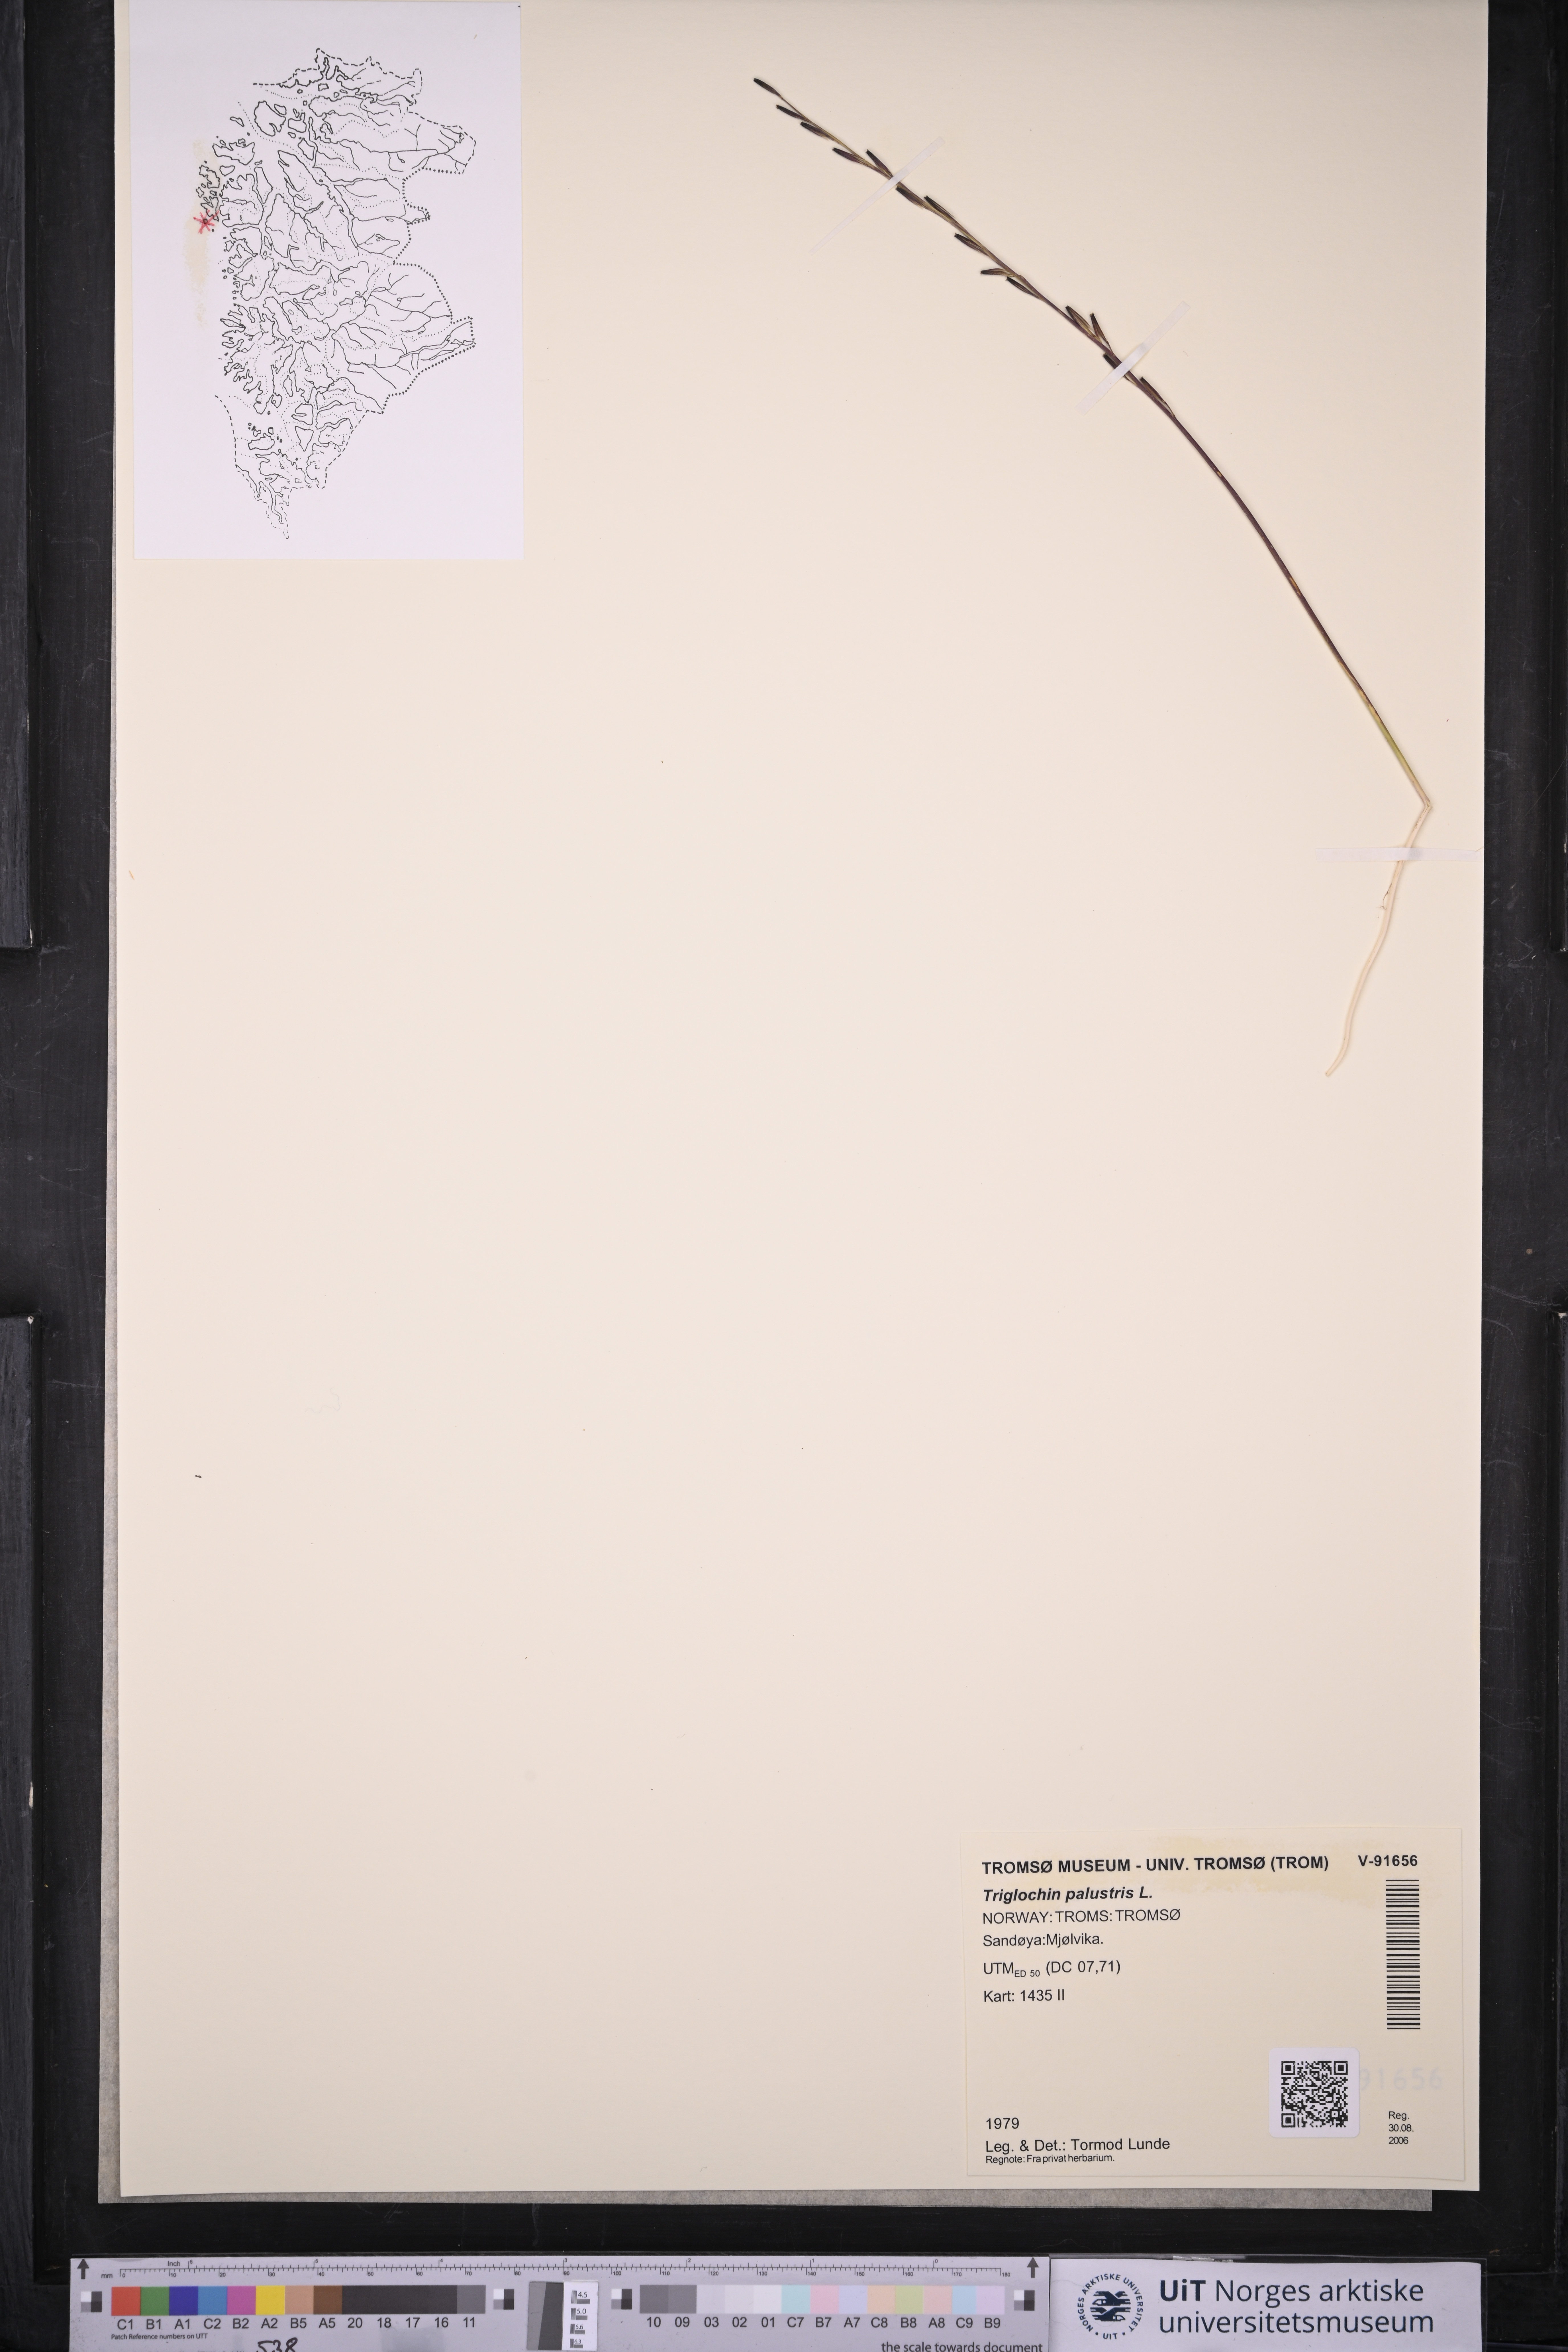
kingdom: Plantae
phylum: Tracheophyta
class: Liliopsida
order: Alismatales
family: Juncaginaceae
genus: Triglochin
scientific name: Triglochin palustris
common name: Marsh arrowgrass
